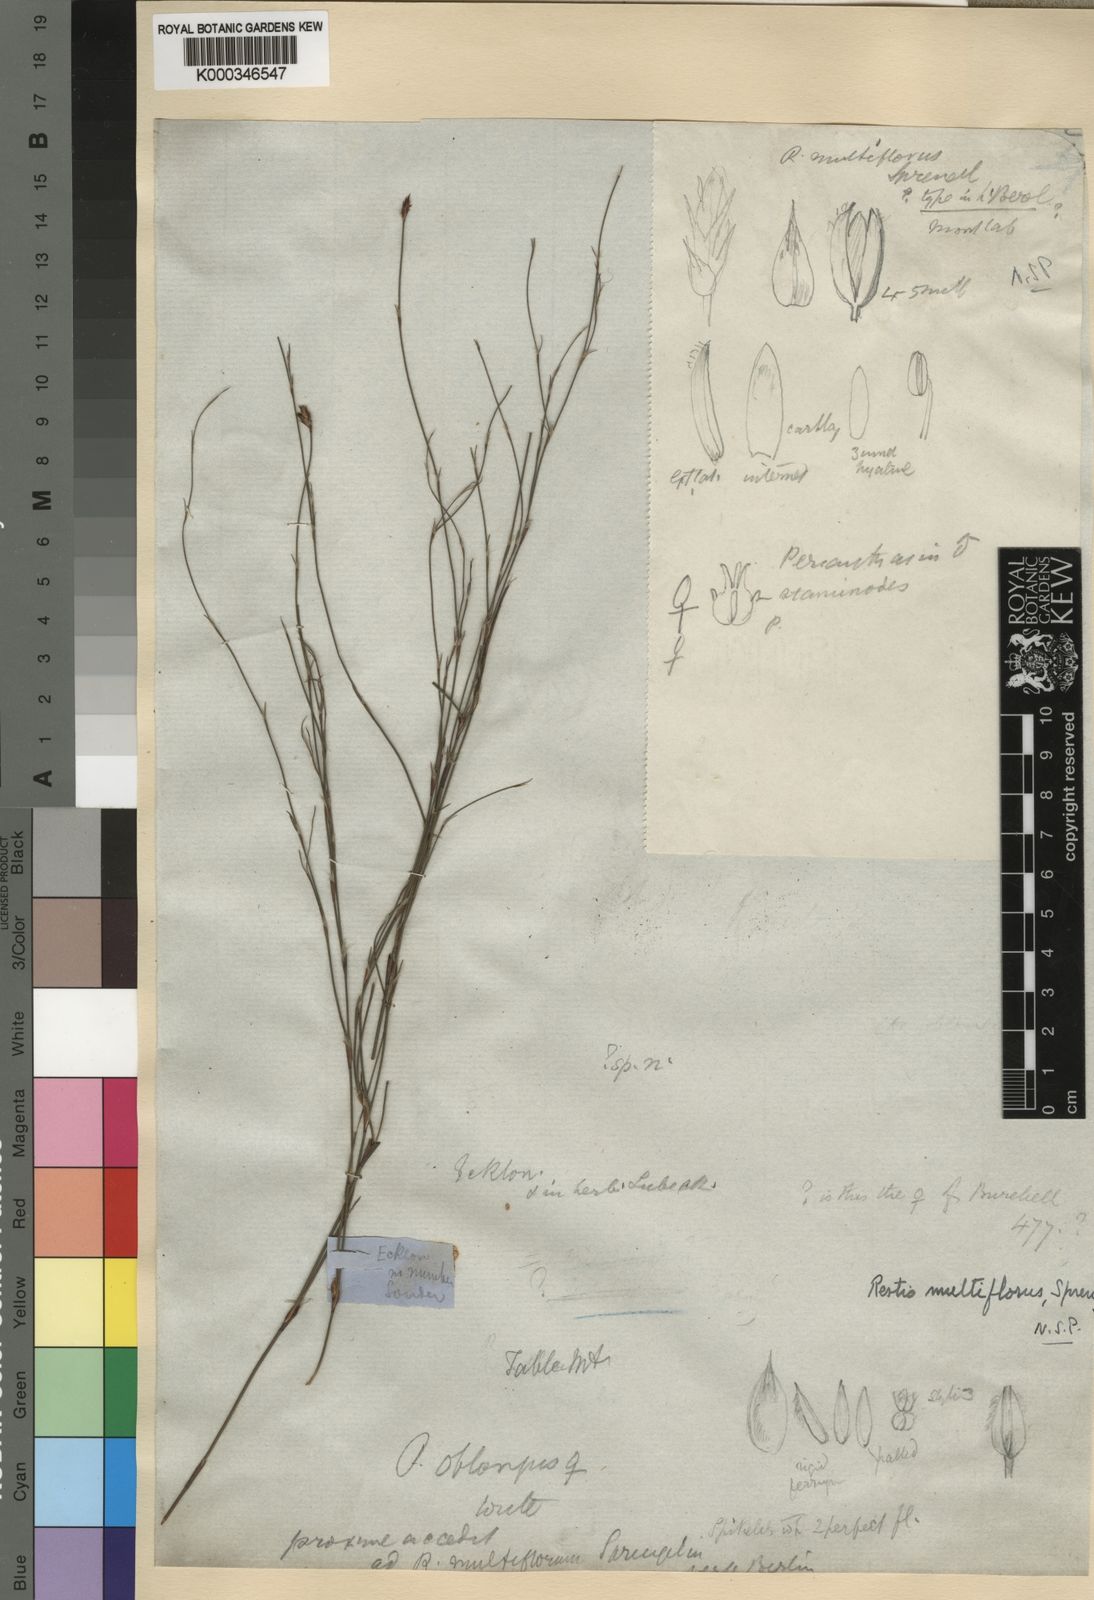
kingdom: Plantae
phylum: Tracheophyta
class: Liliopsida
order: Poales
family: Restionaceae
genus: Restio
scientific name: Restio multiflorus
